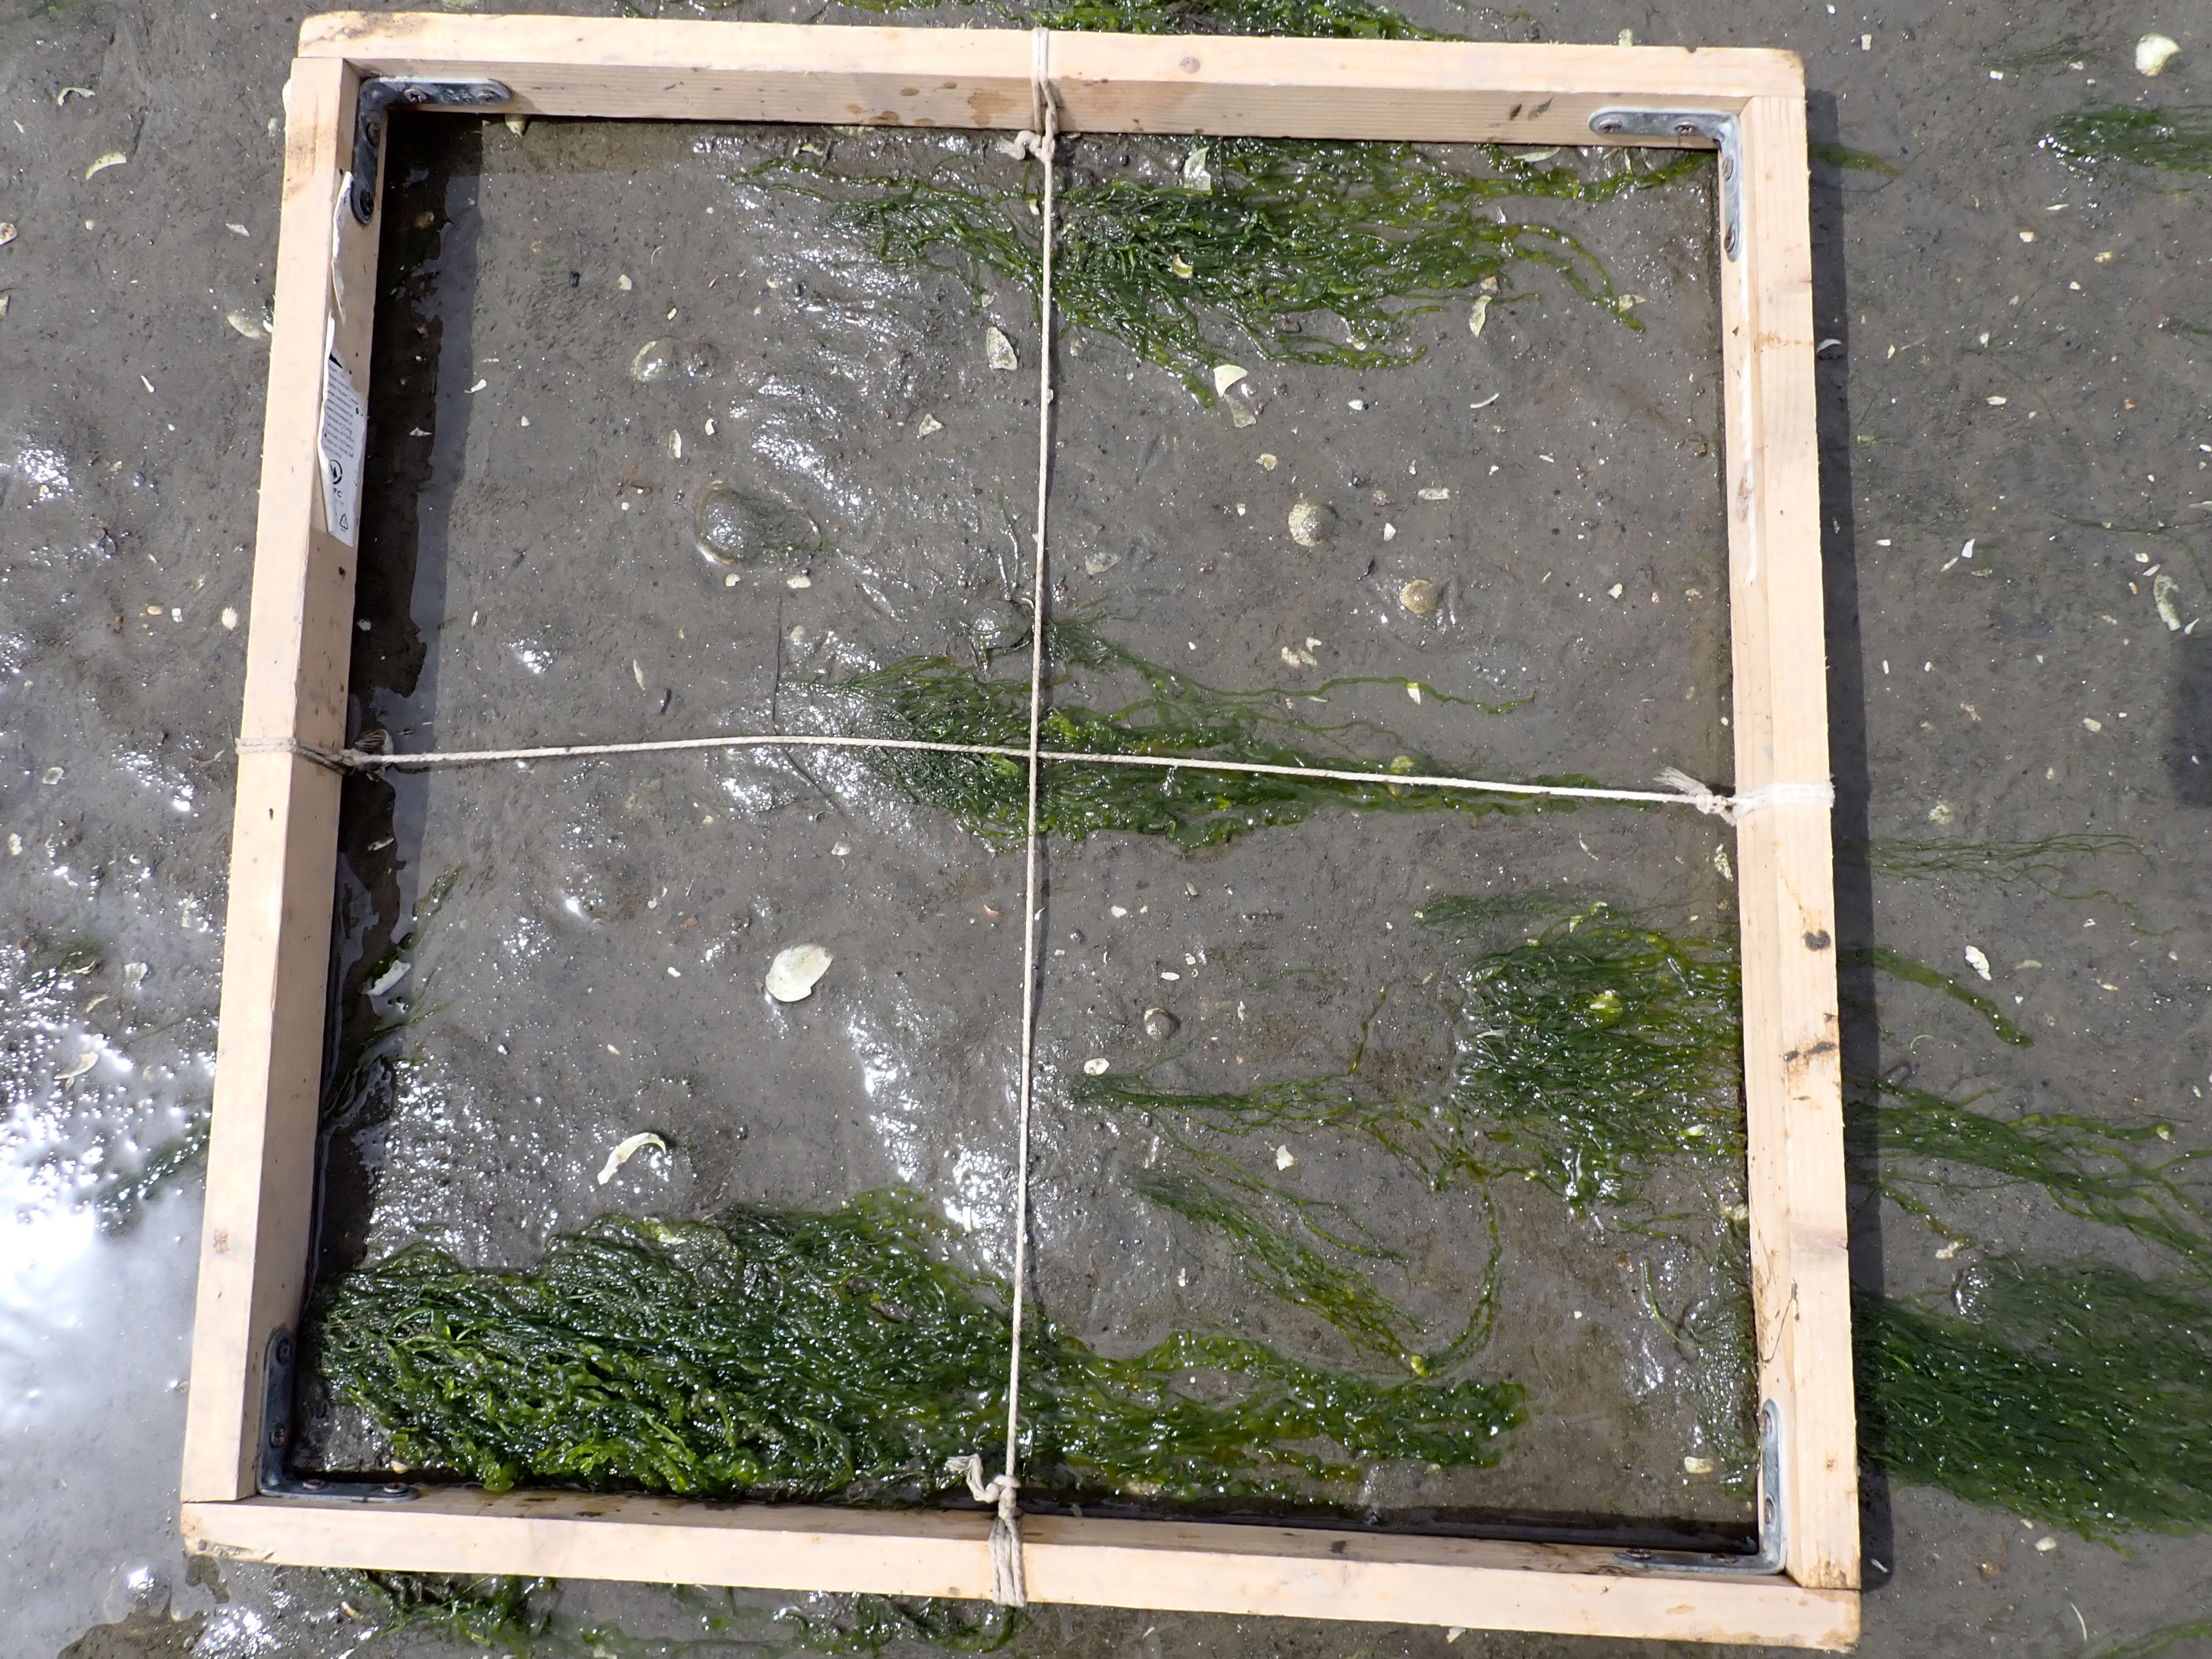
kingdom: Plantae
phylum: Chlorophyta
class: Ulvophyceae
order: Ulvales
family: Ulvaceae
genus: Ulva
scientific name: Ulva
